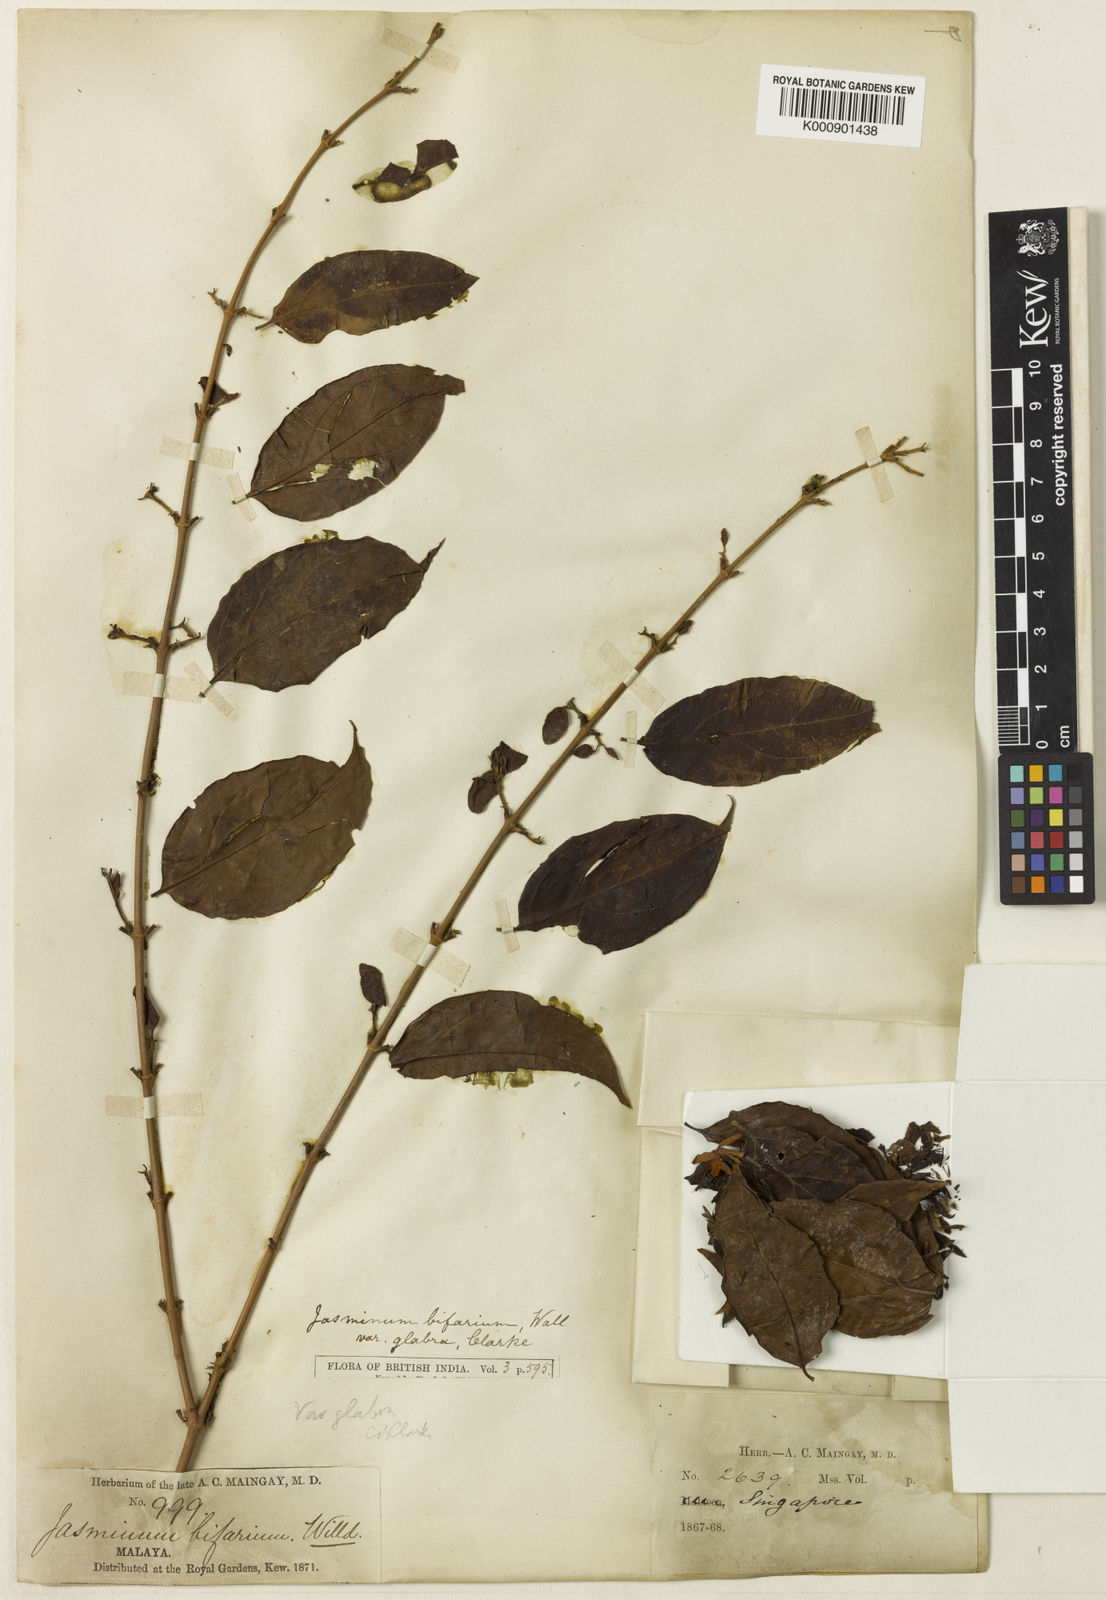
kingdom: Plantae
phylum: Tracheophyta
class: Magnoliopsida
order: Lamiales
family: Oleaceae
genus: Jasminum
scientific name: Jasminum elongatum
